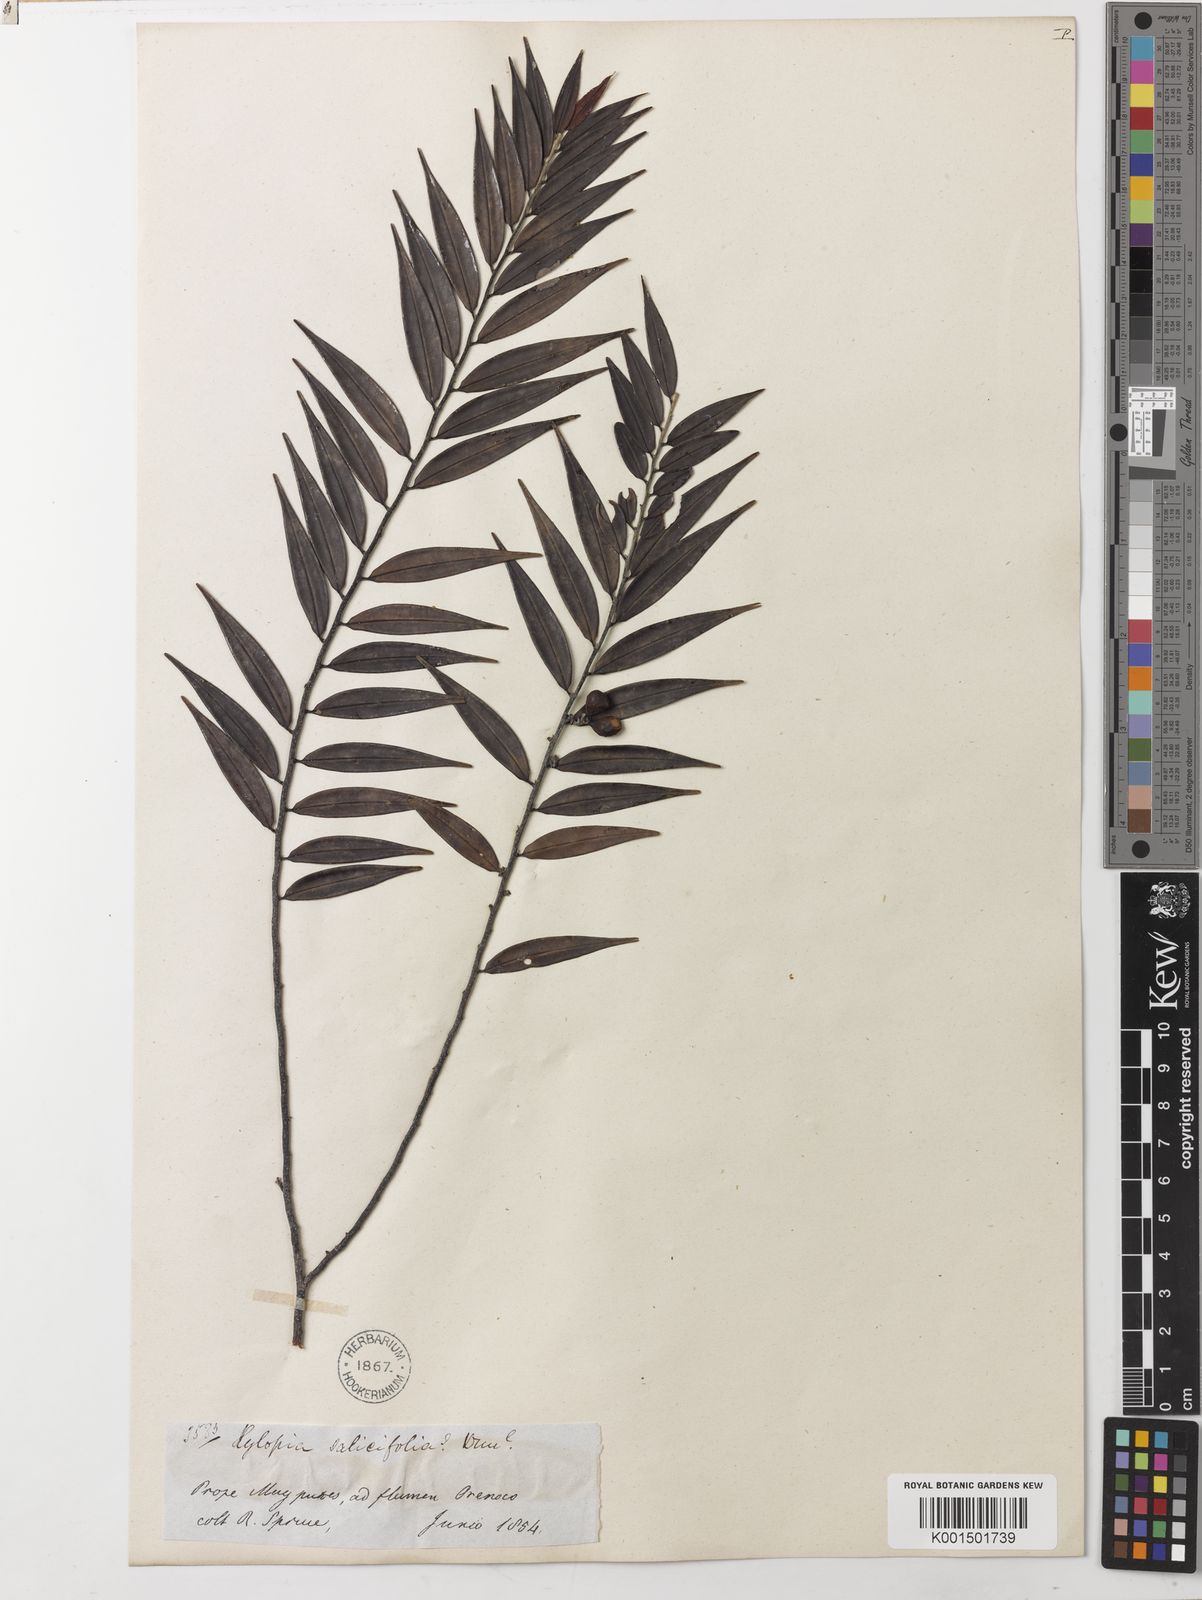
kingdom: Plantae
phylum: Tracheophyta
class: Magnoliopsida
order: Magnoliales
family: Annonaceae
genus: Xylopia
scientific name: Xylopia discreta
